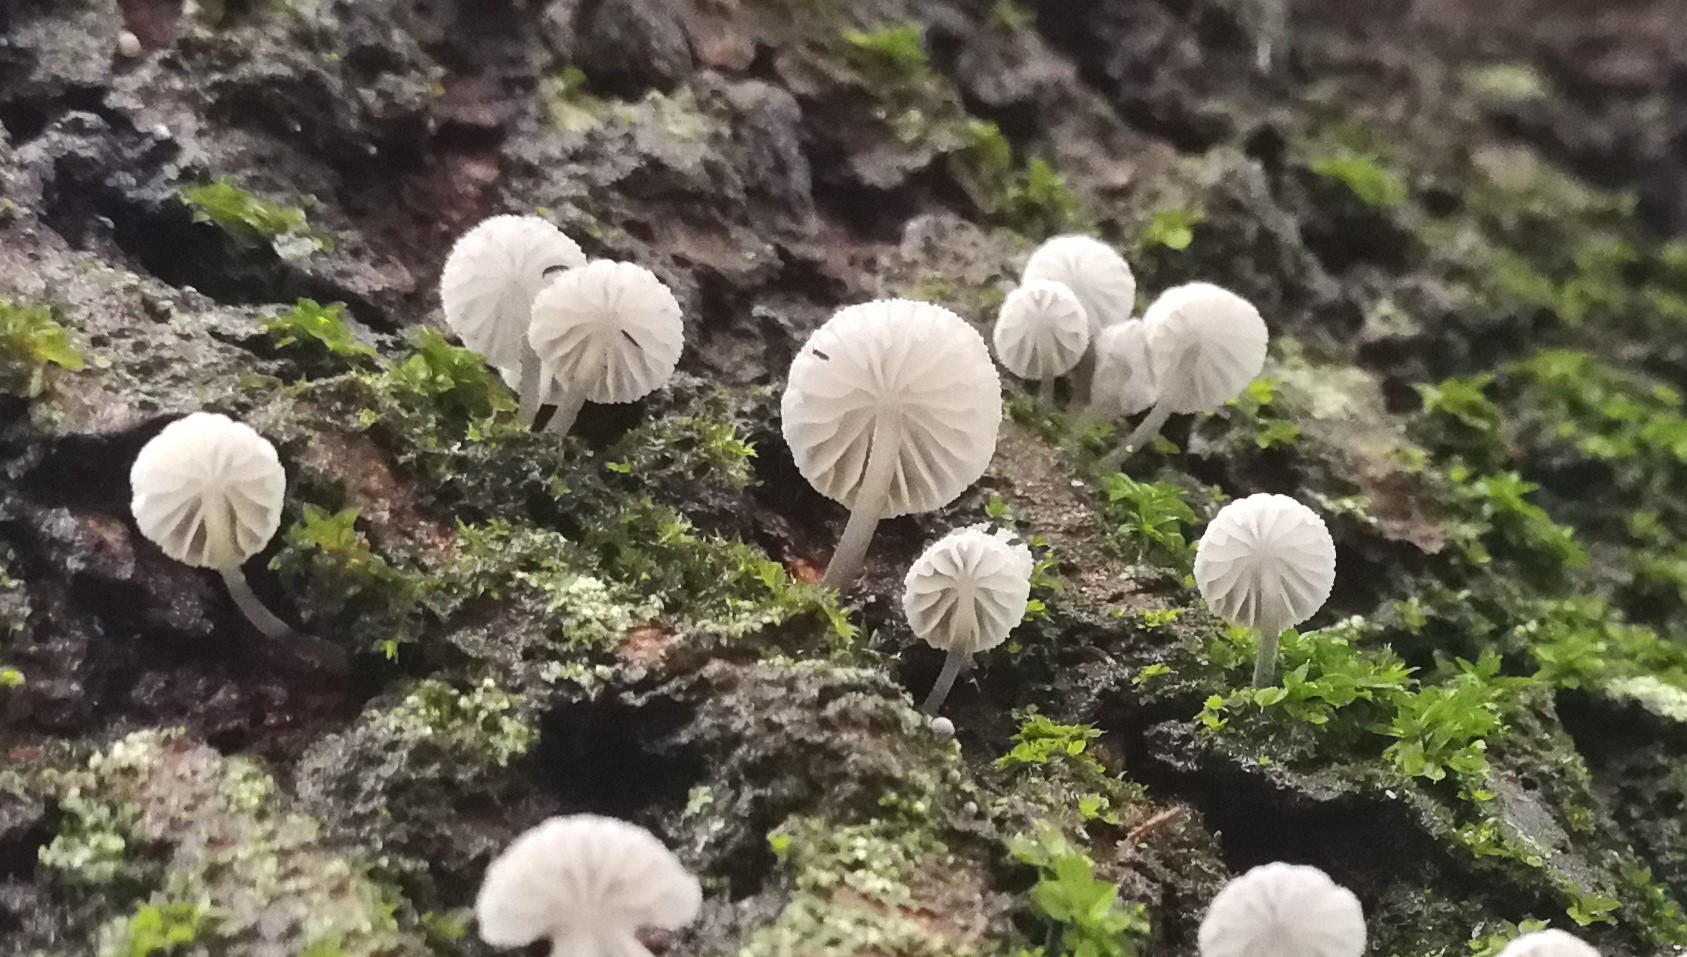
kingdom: Fungi
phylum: Basidiomycota
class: Agaricomycetes
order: Agaricales
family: Mycenaceae
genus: Mycena
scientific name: Mycena pseudocorticola
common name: gråblå bark-huesvamp
